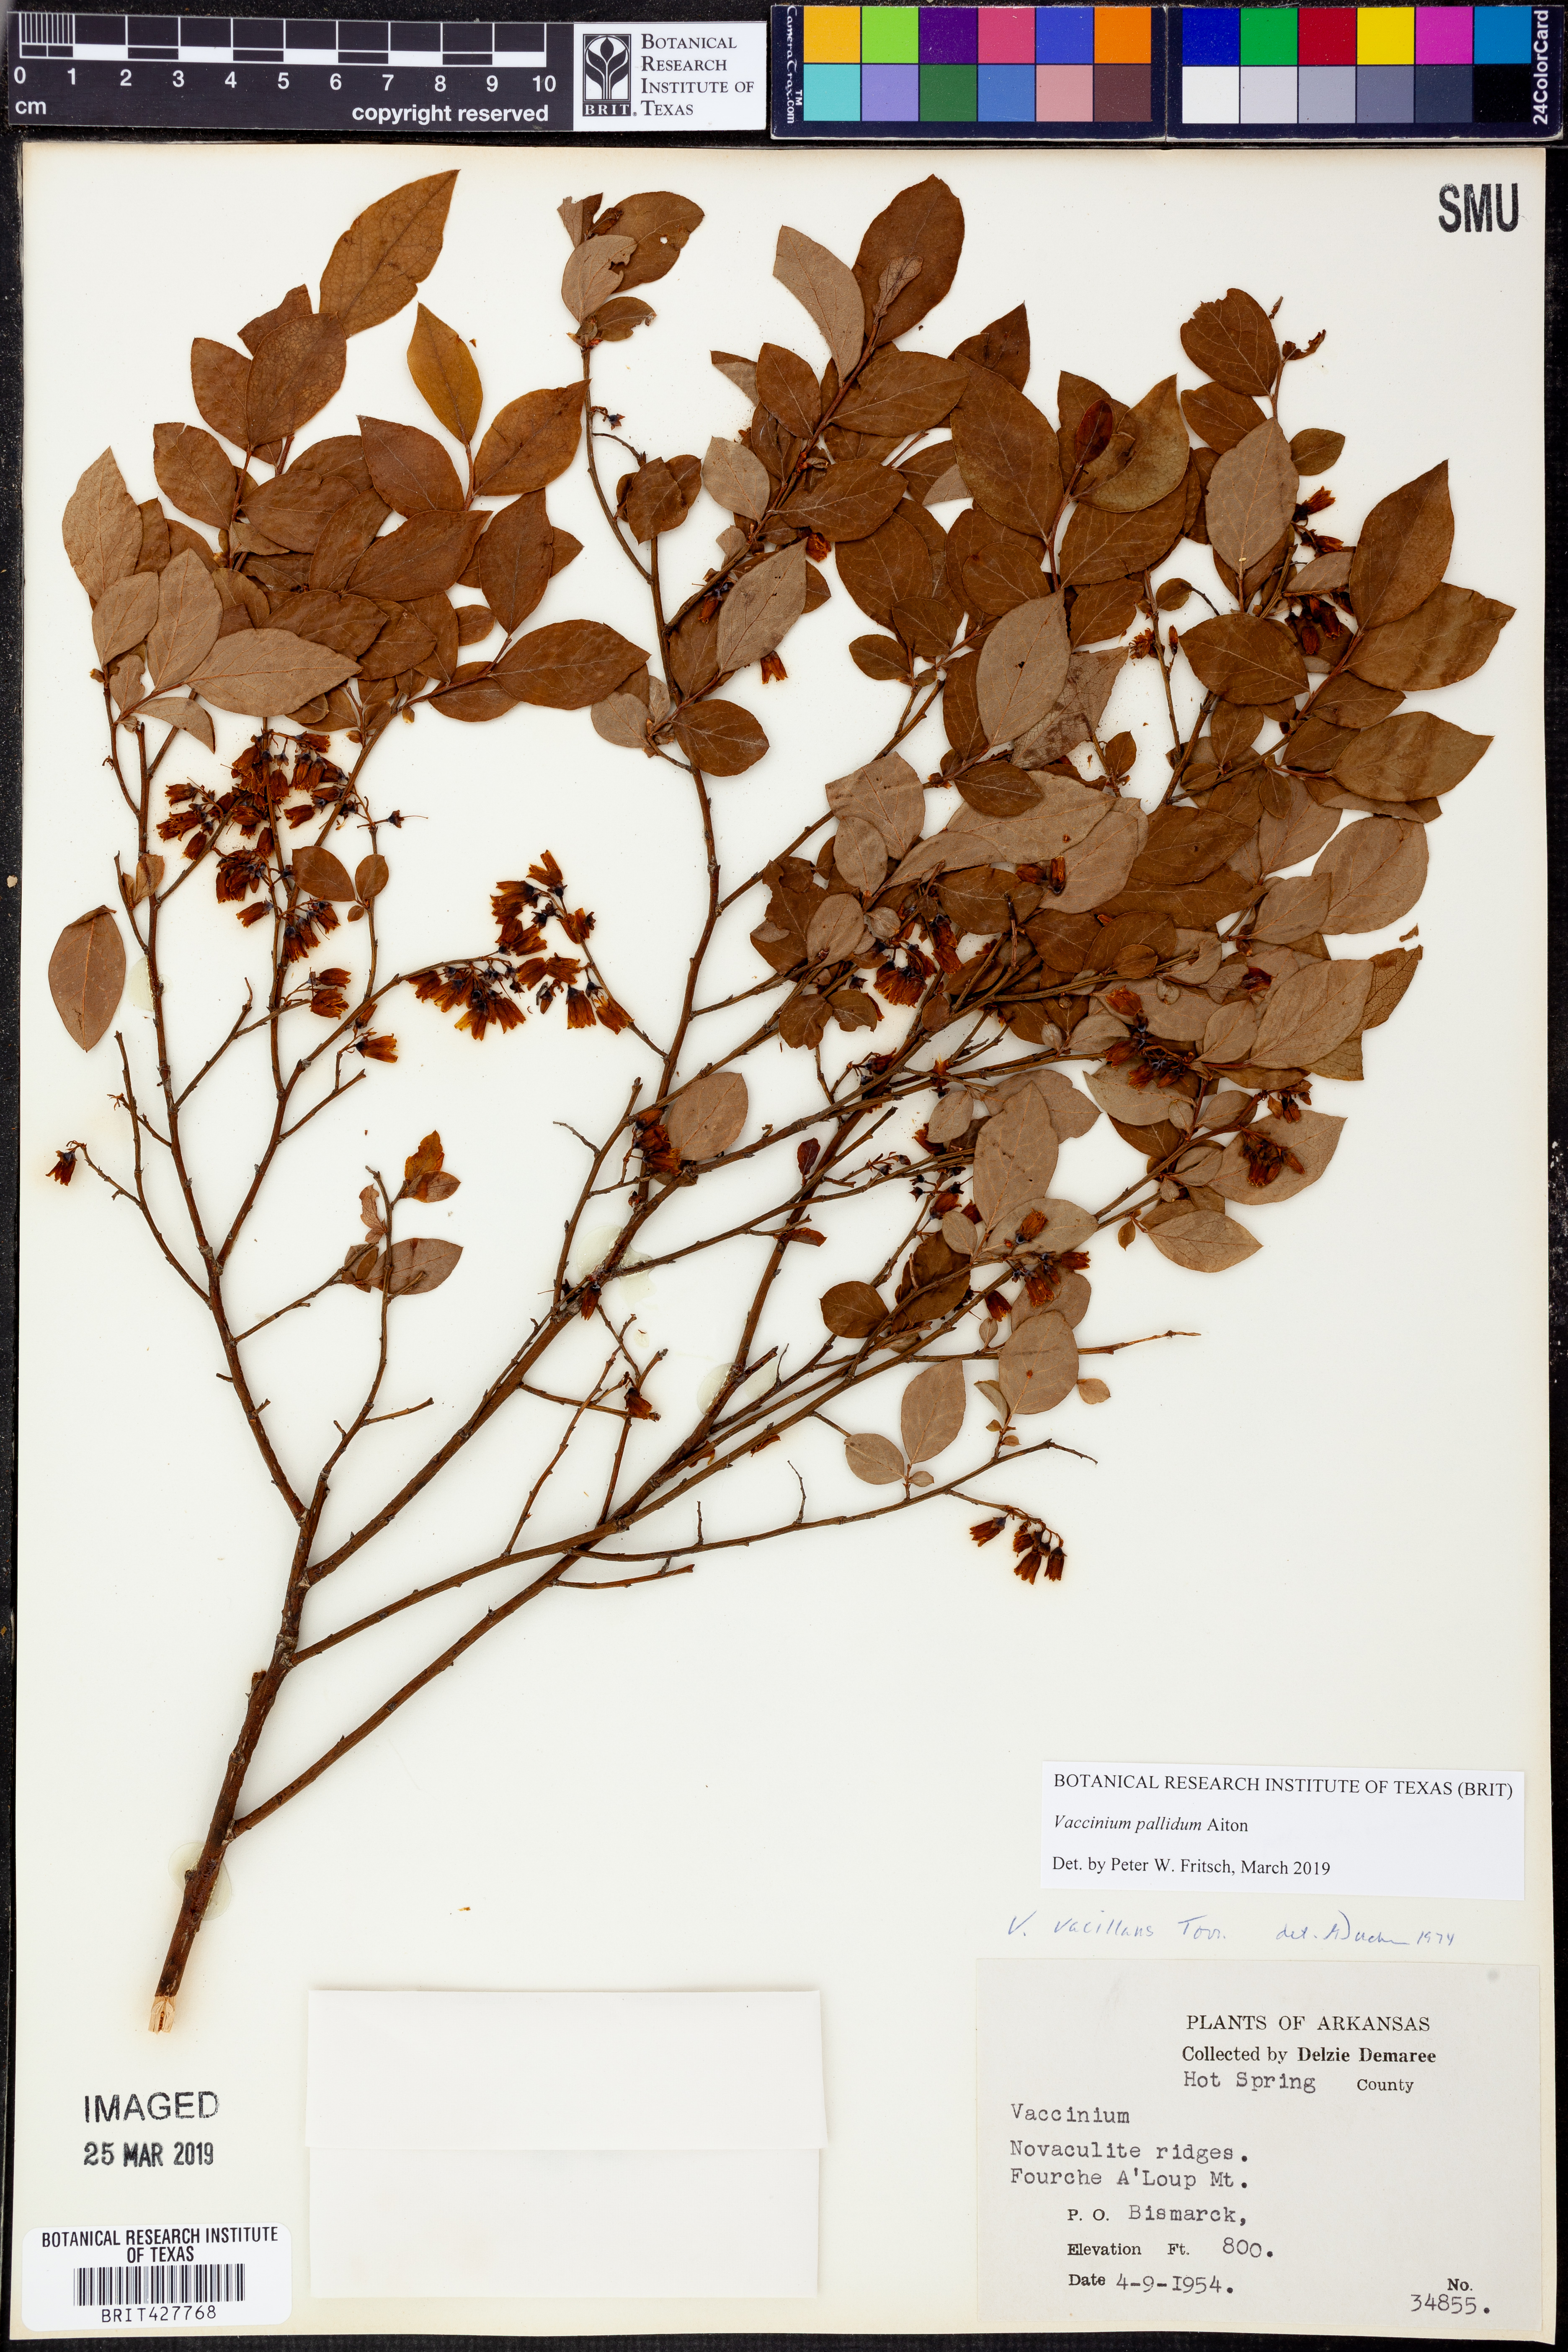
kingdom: Plantae
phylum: Tracheophyta
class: Magnoliopsida
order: Ericales
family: Ericaceae
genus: Vaccinium
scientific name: Vaccinium pallidum
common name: Blue ridge blueberry
